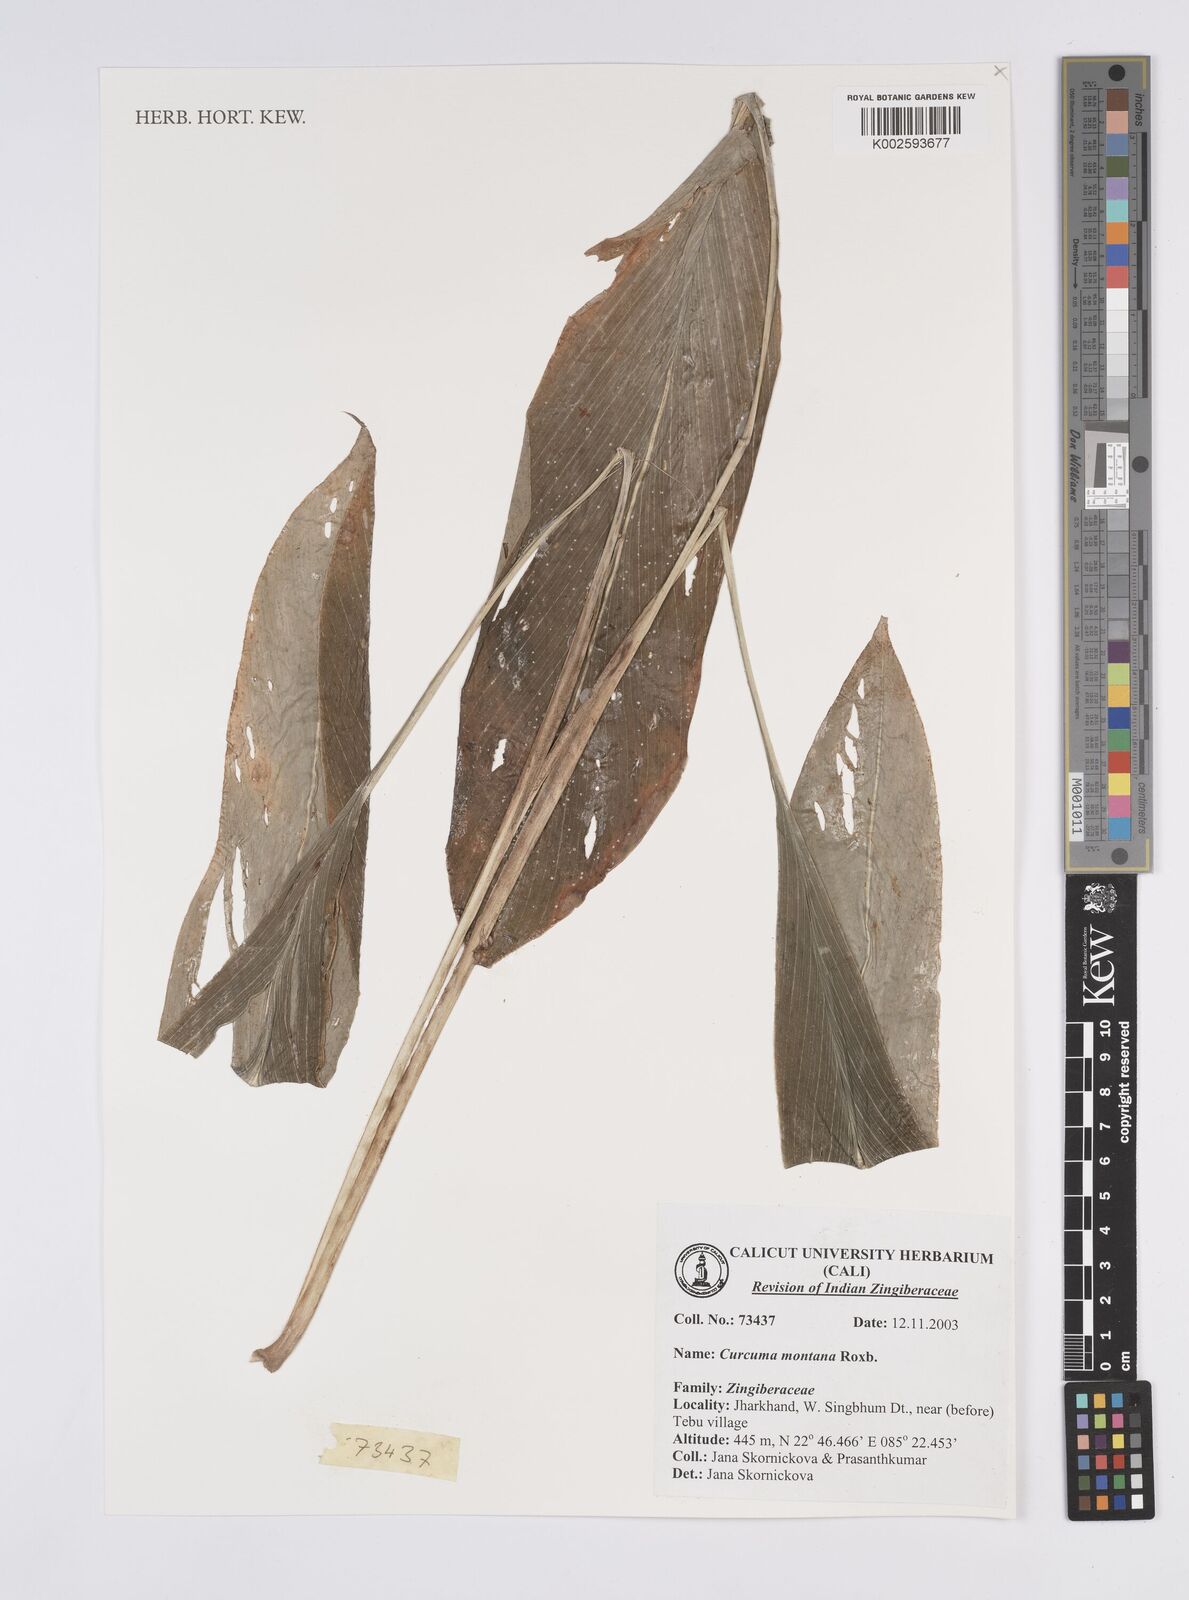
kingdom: Plantae
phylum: Tracheophyta
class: Liliopsida
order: Zingiberales
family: Zingiberaceae
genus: Curcuma
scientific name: Curcuma montana
